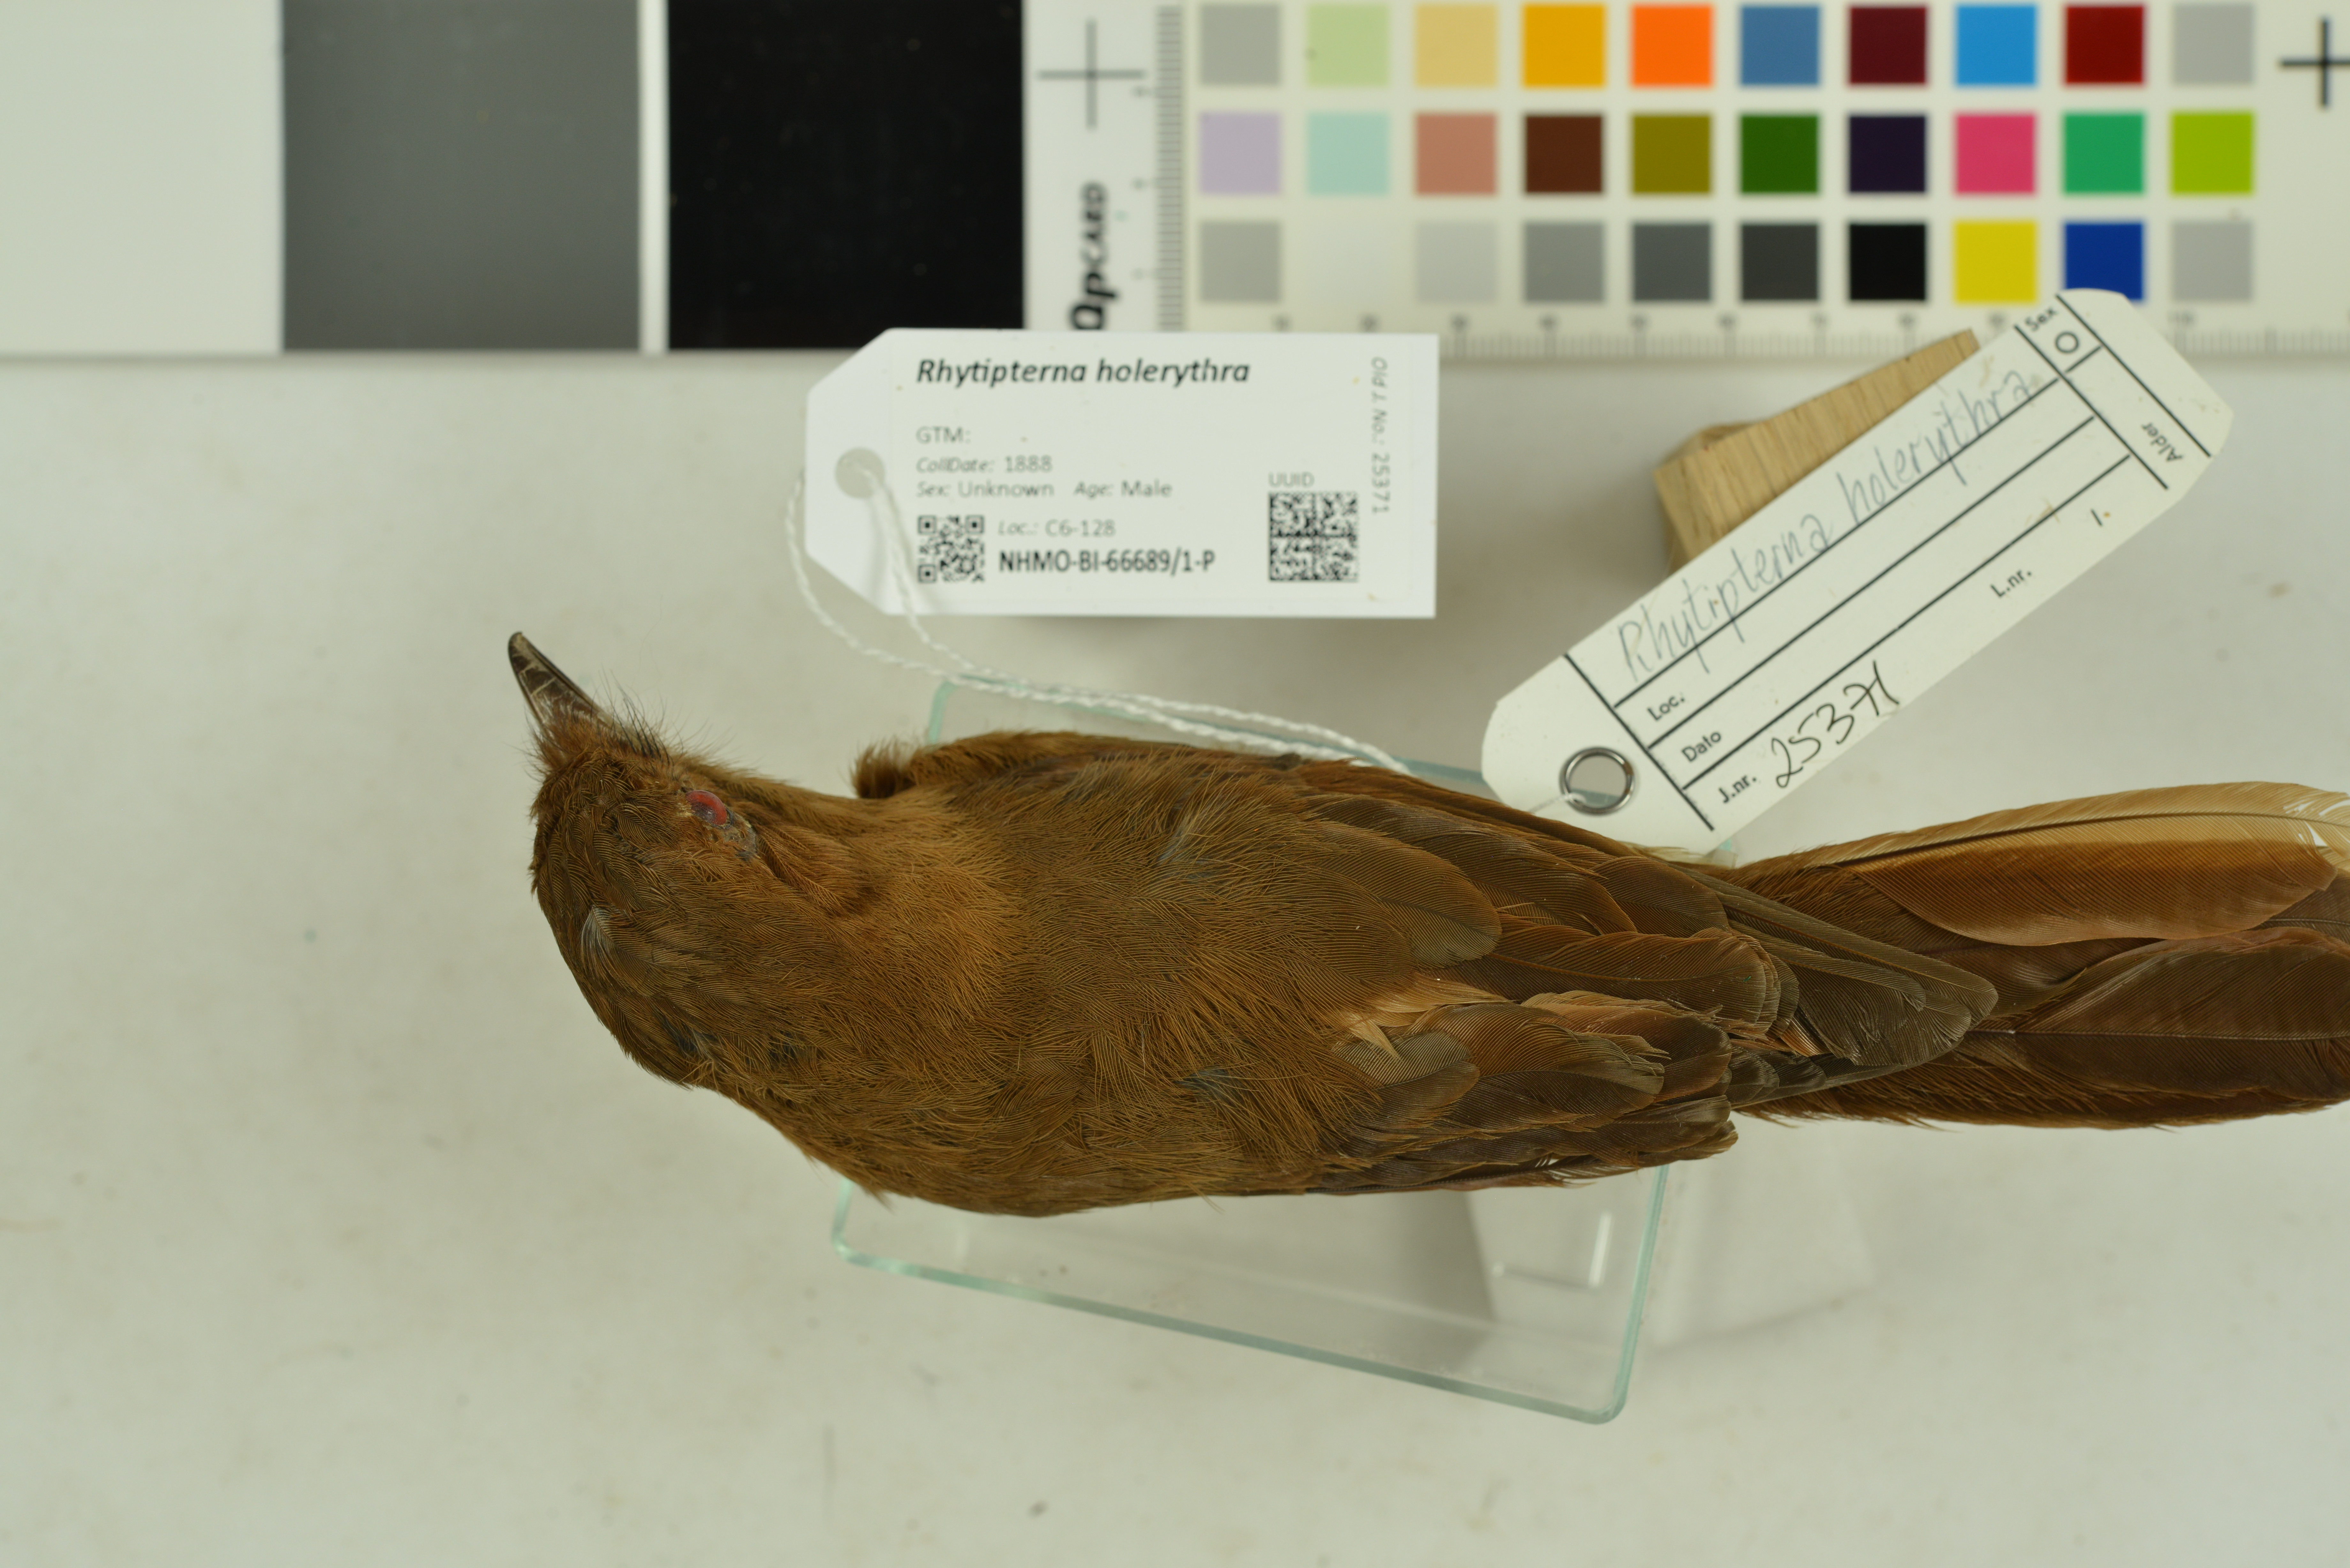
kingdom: Animalia
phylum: Chordata
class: Aves
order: Passeriformes
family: Tyrannidae
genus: Rhytipterna
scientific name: Rhytipterna holerythra
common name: Rufous mourner
